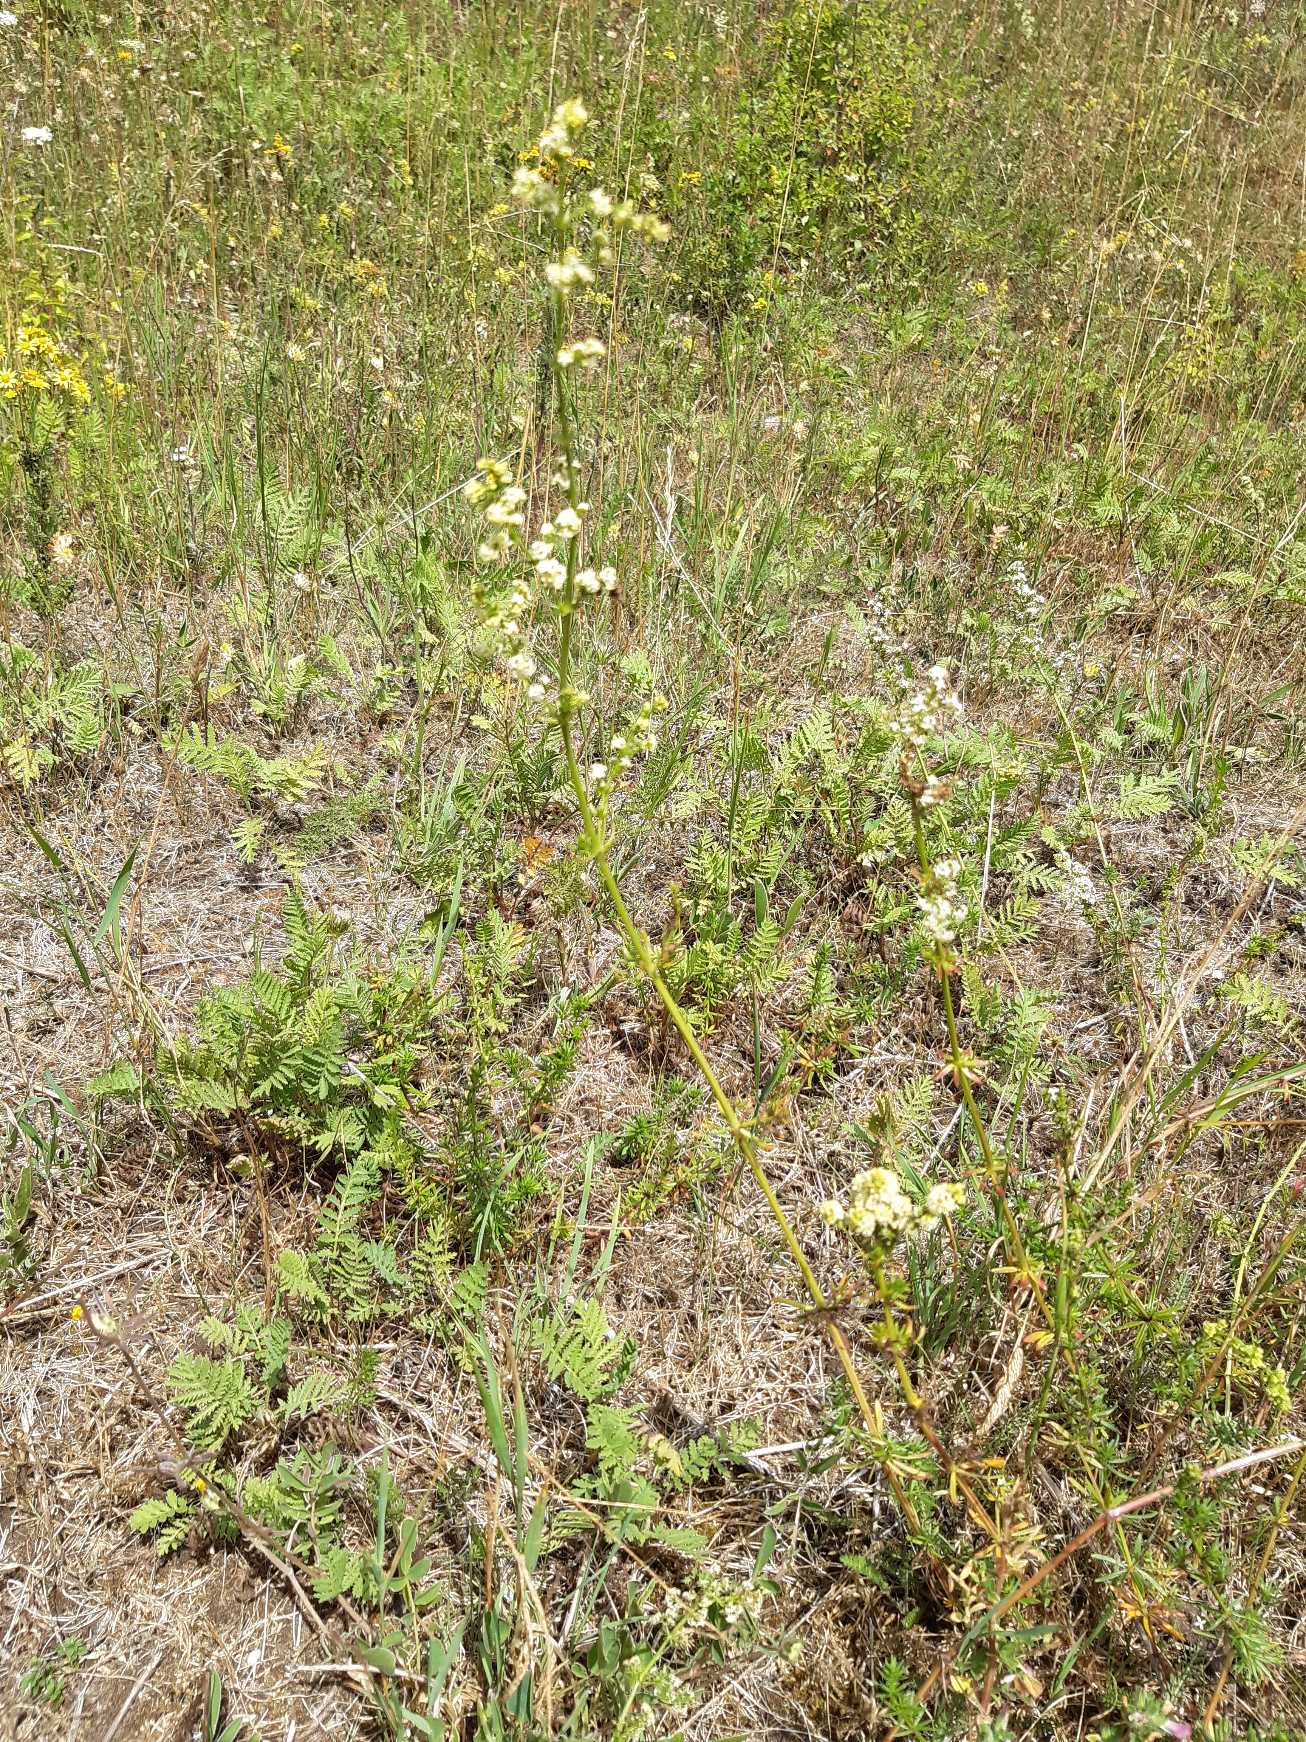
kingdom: Plantae
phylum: Tracheophyta
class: Magnoliopsida
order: Gentianales
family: Rubiaceae
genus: Galium
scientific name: Galium mollugo
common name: Hvid snerre
